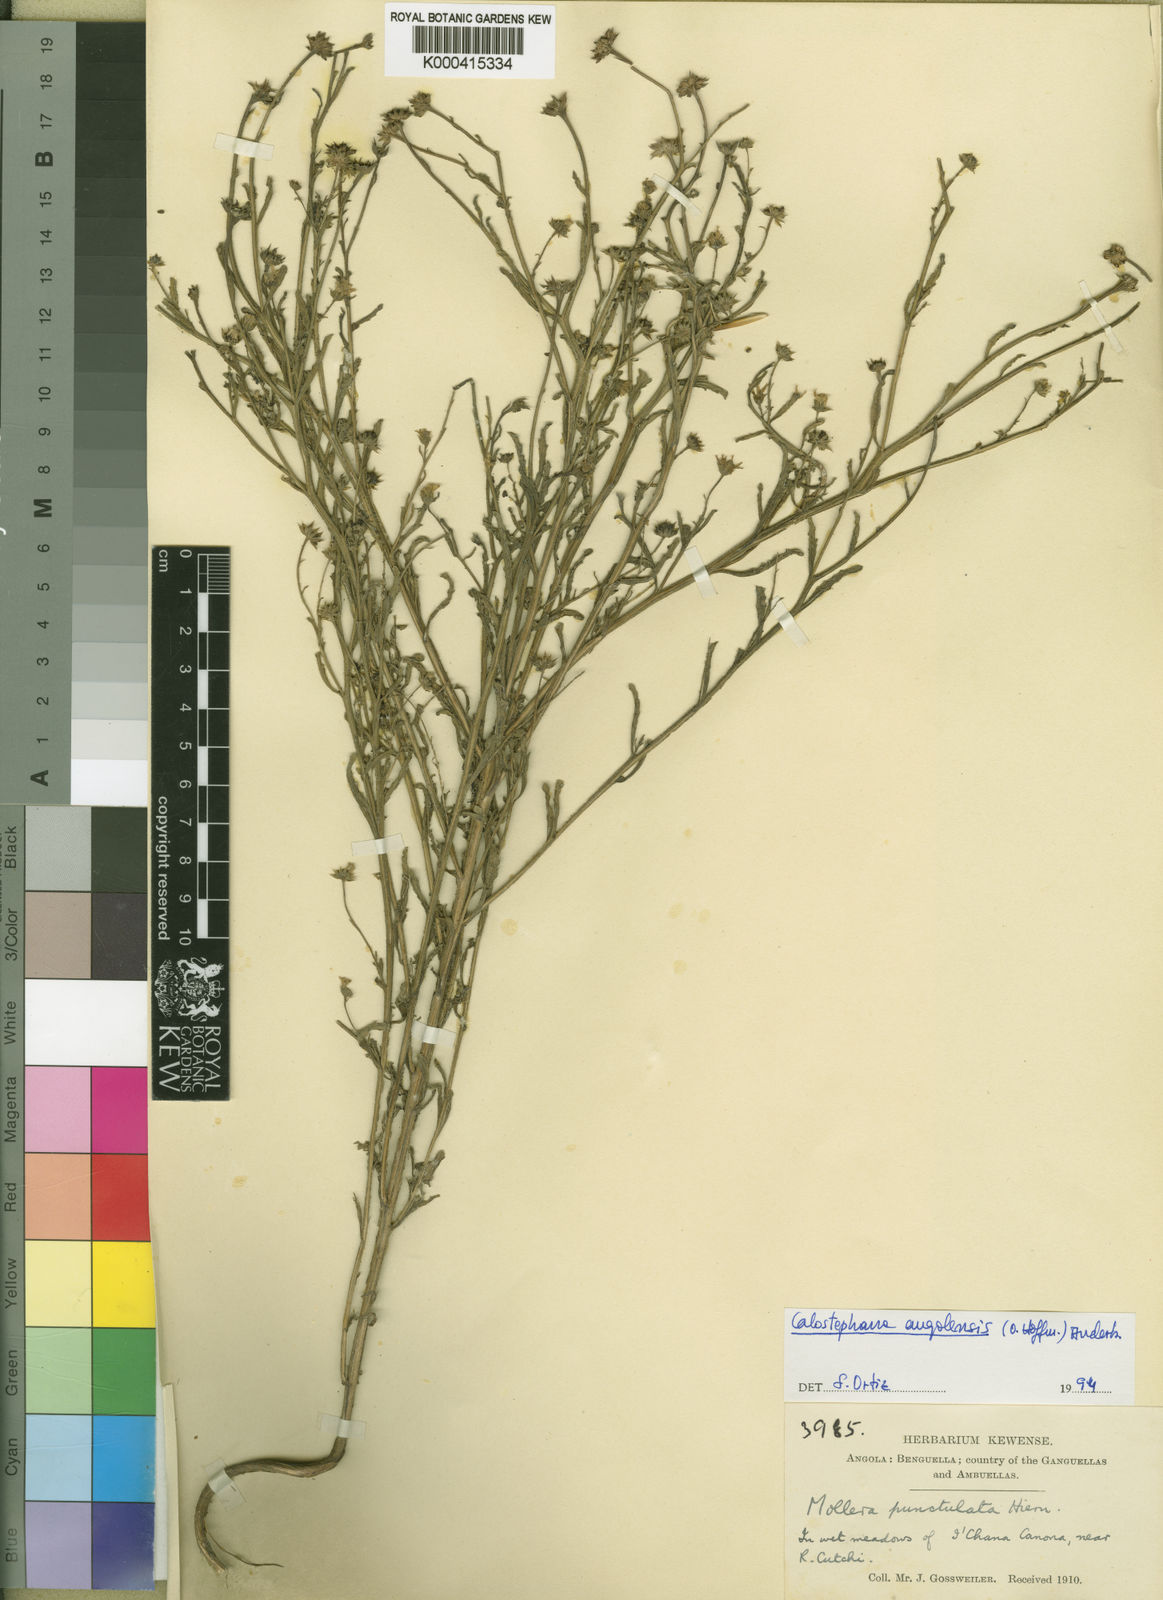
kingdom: Plantae
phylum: Tracheophyta
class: Magnoliopsida
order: Asterales
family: Asteraceae
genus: Calostephane
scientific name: Calostephane punctulata
